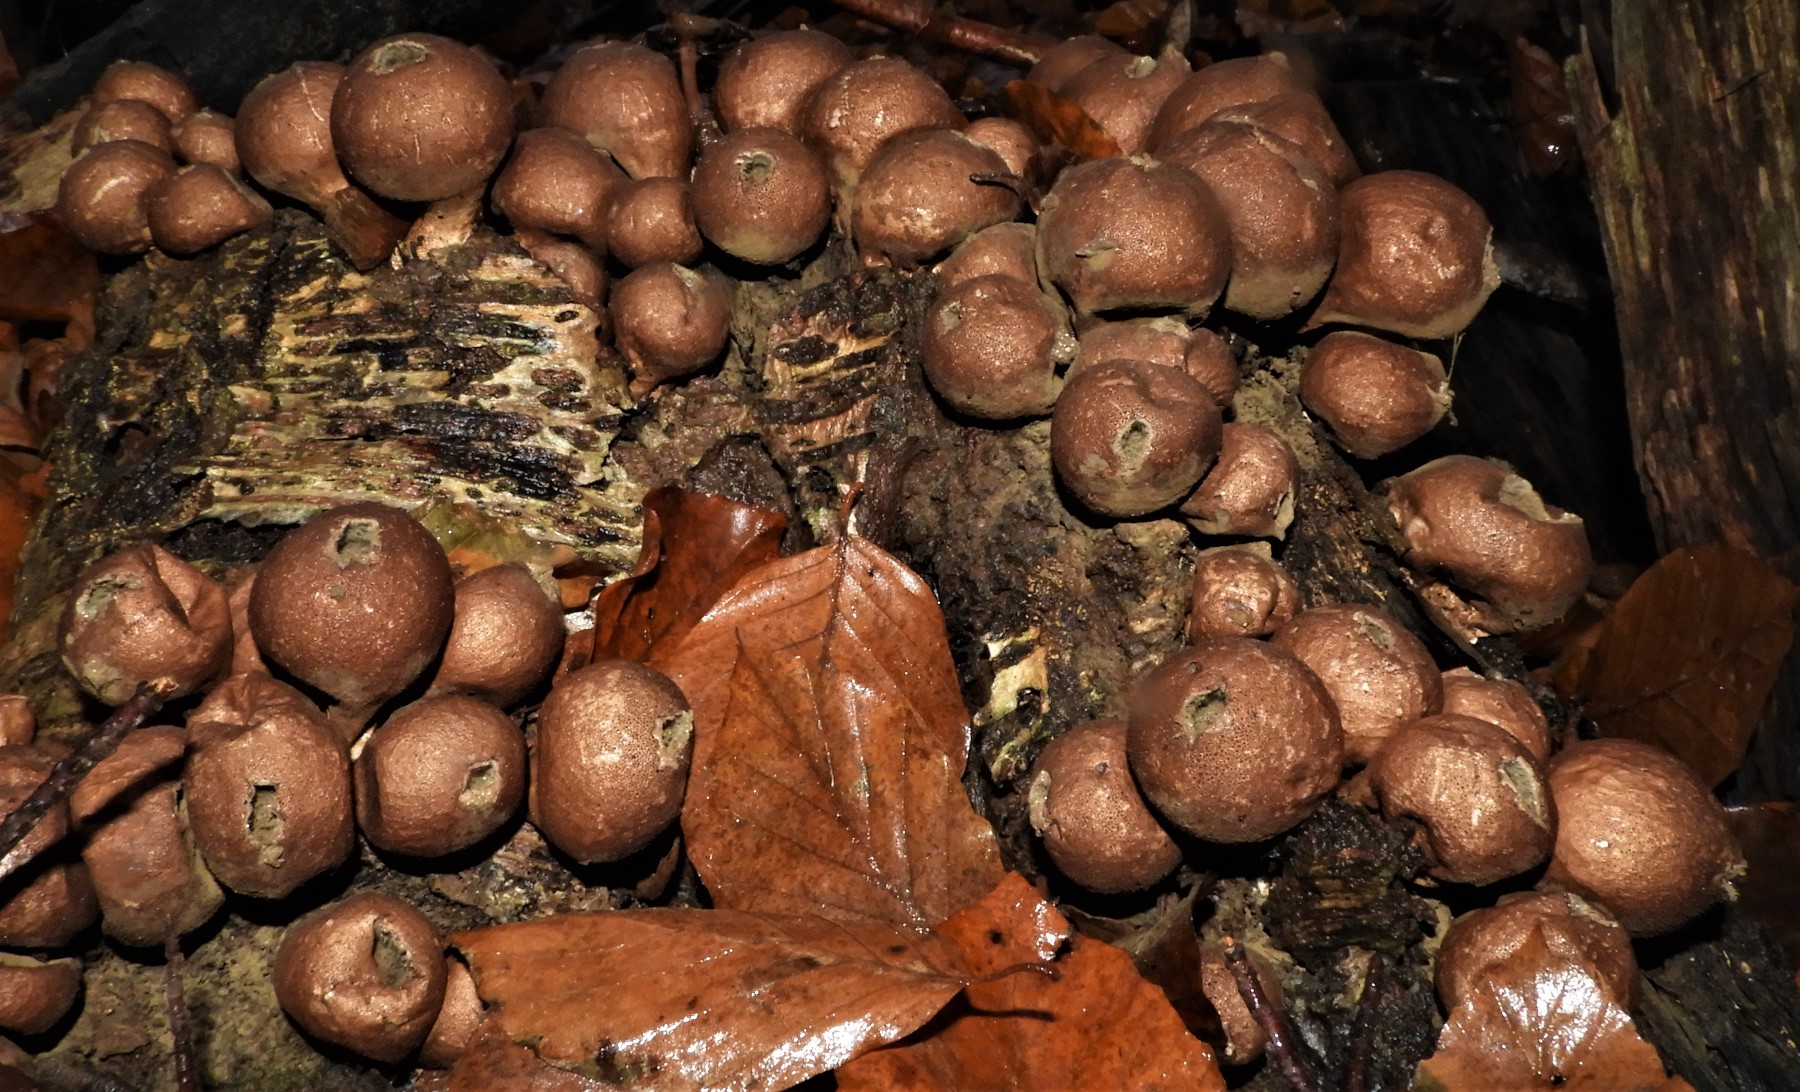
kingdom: Fungi
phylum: Basidiomycota
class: Agaricomycetes
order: Agaricales
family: Lycoperdaceae
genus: Apioperdon
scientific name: Apioperdon pyriforme
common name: pære-støvbold
